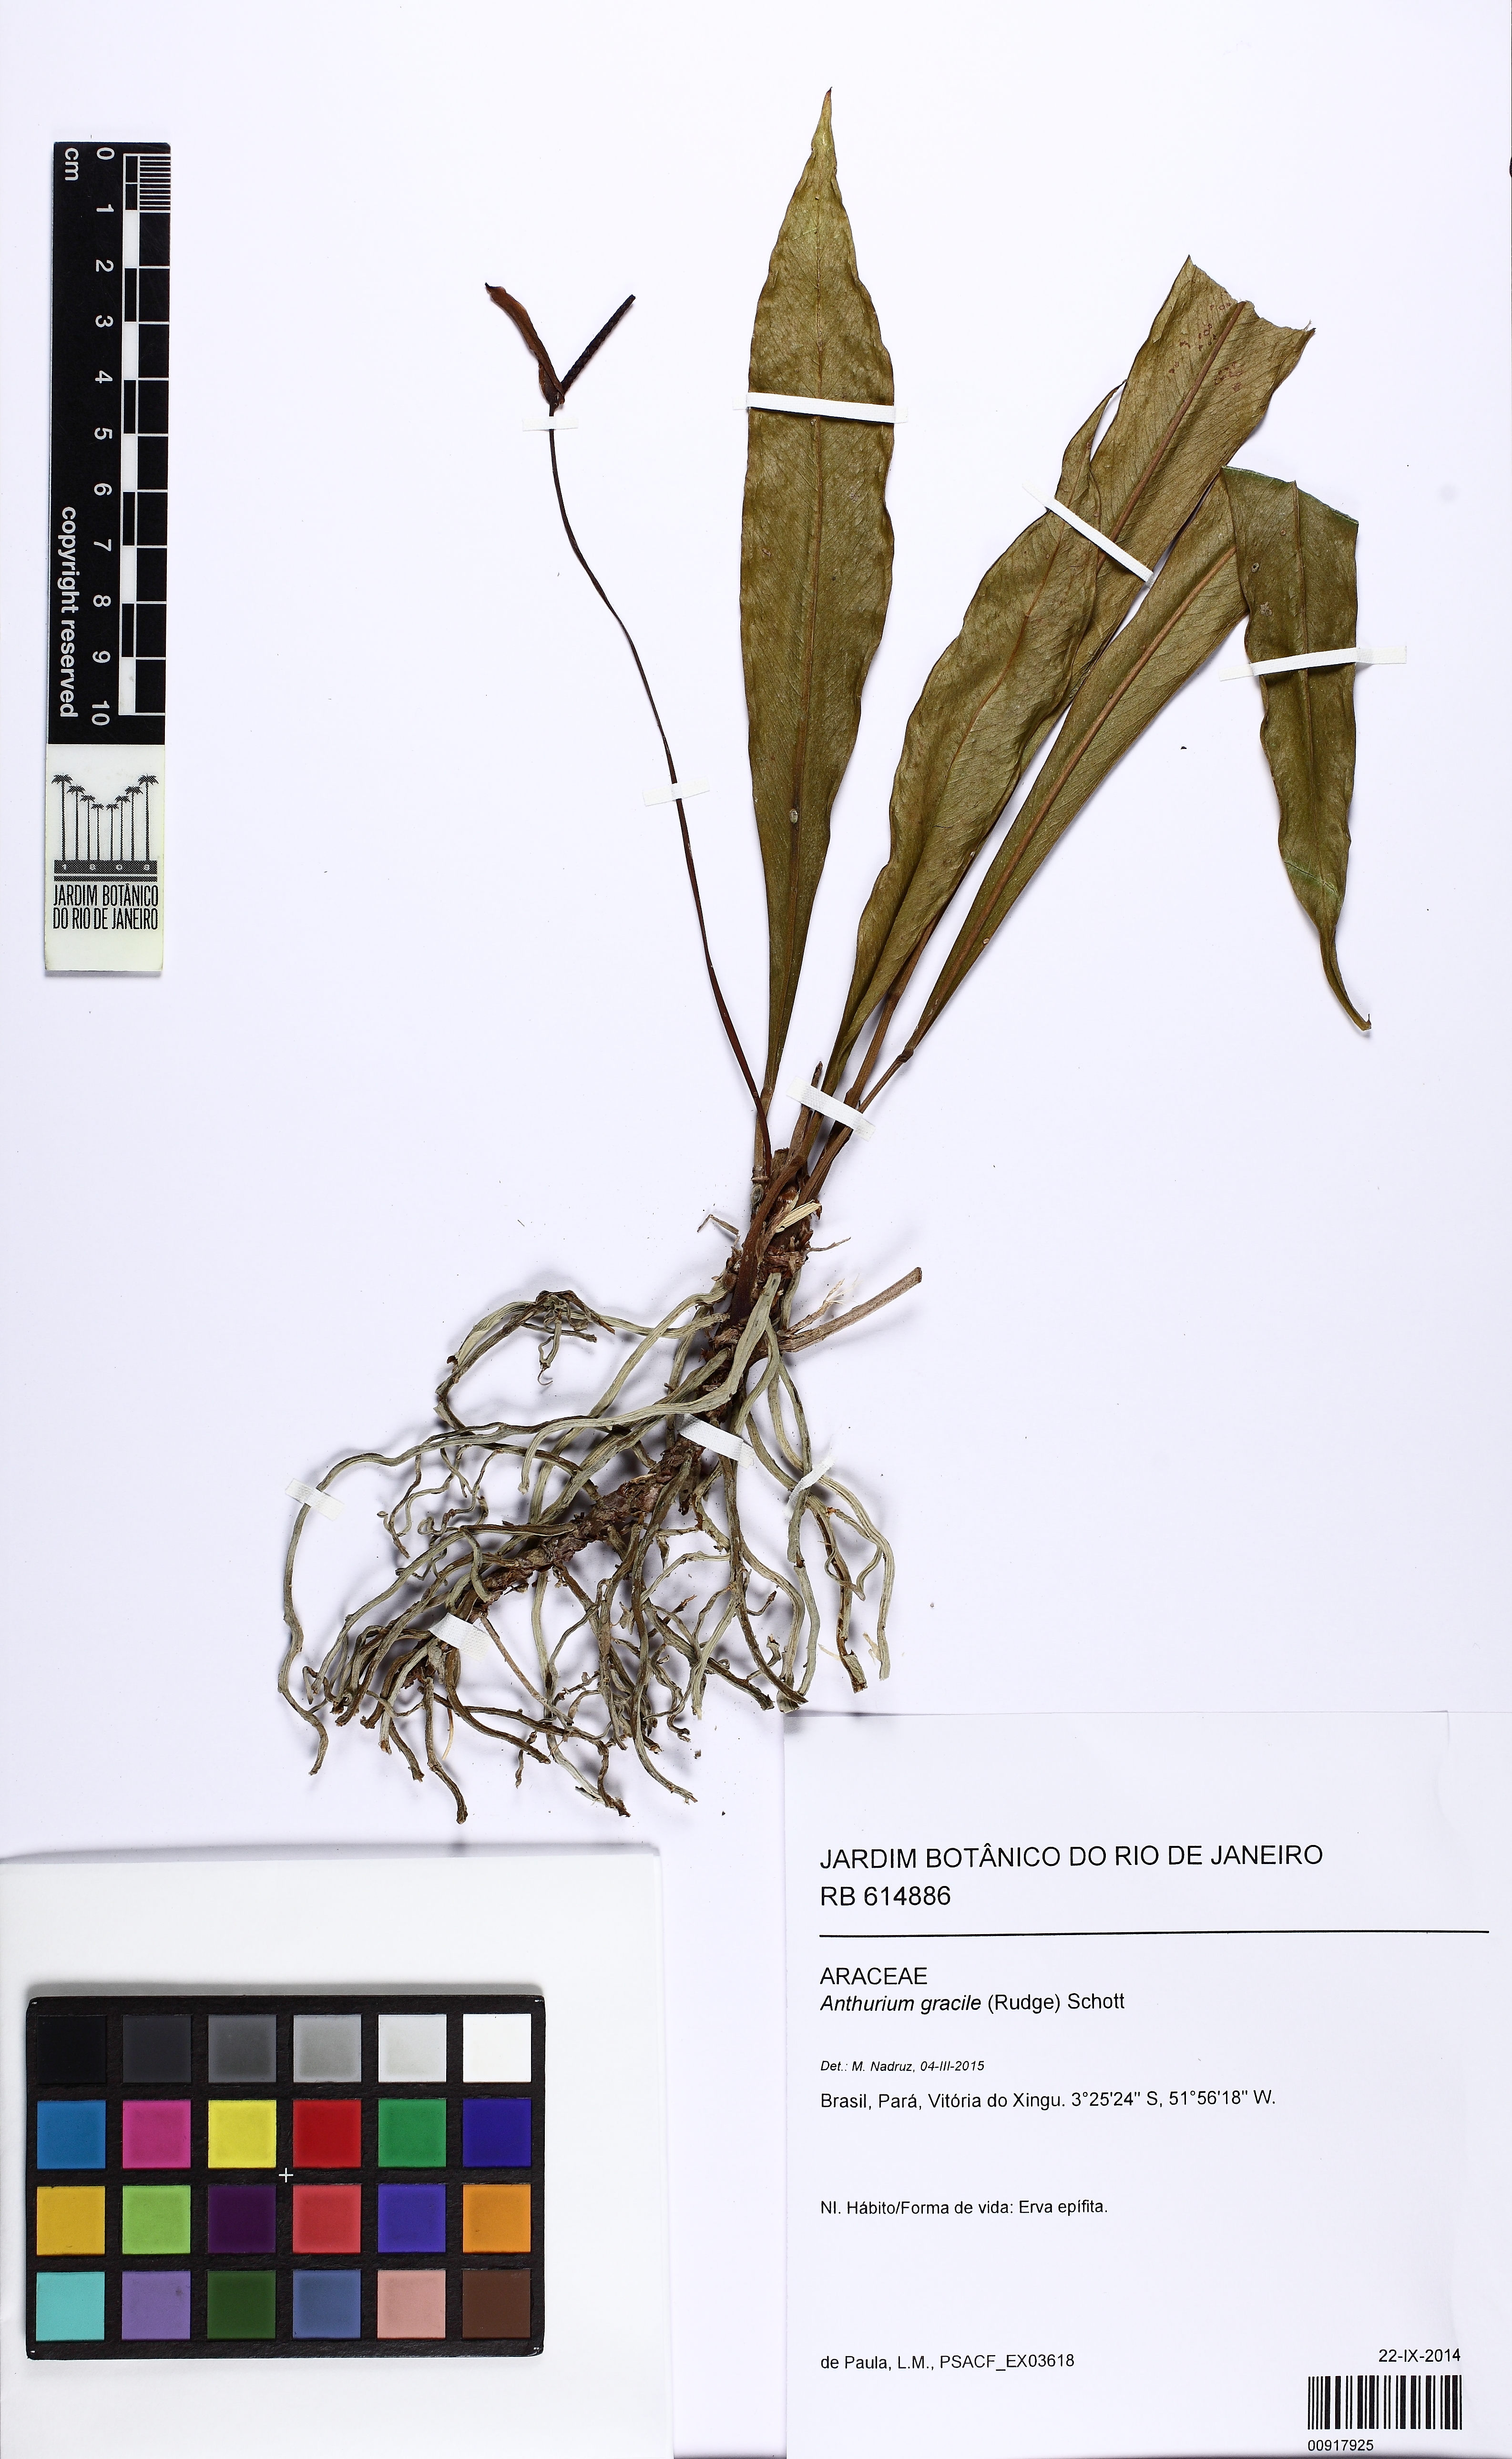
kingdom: Plantae
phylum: Tracheophyta
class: Liliopsida
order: Alismatales
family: Araceae
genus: Anthurium
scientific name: Anthurium gracile
